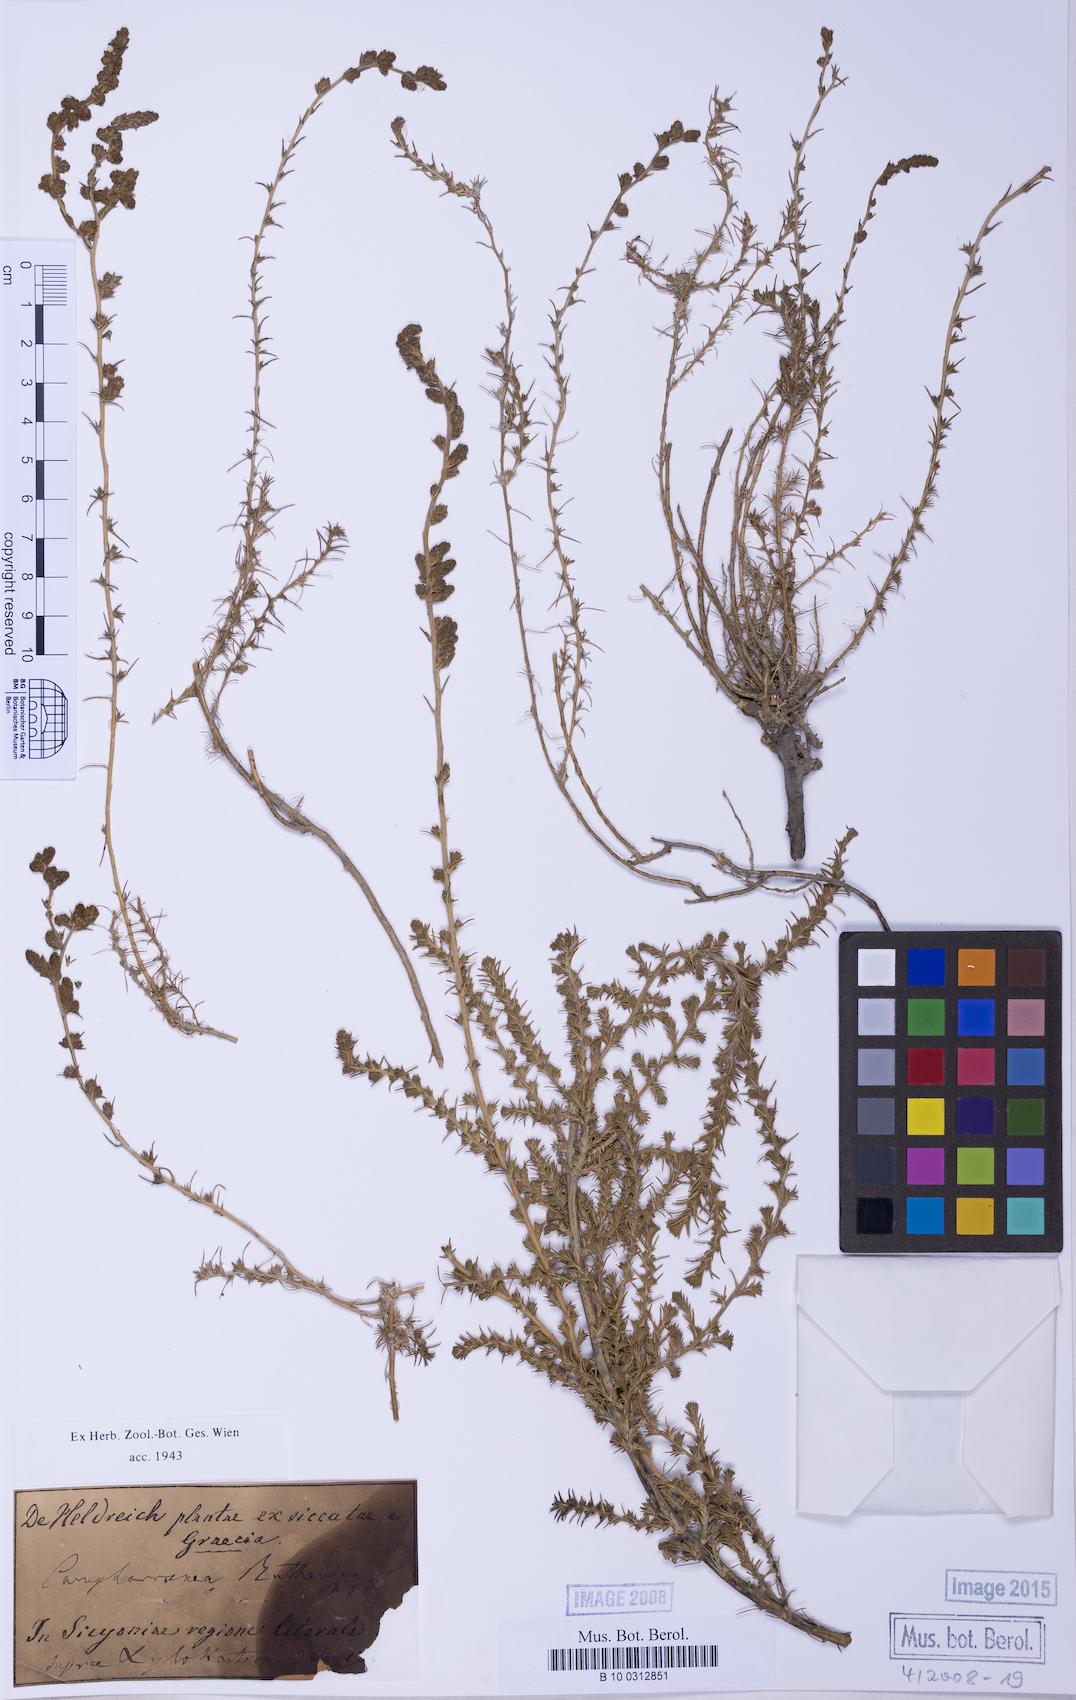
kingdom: Plantae
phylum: Tracheophyta
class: Magnoliopsida
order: Caryophyllales
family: Amaranthaceae
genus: Camphorosma
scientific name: Camphorosma
